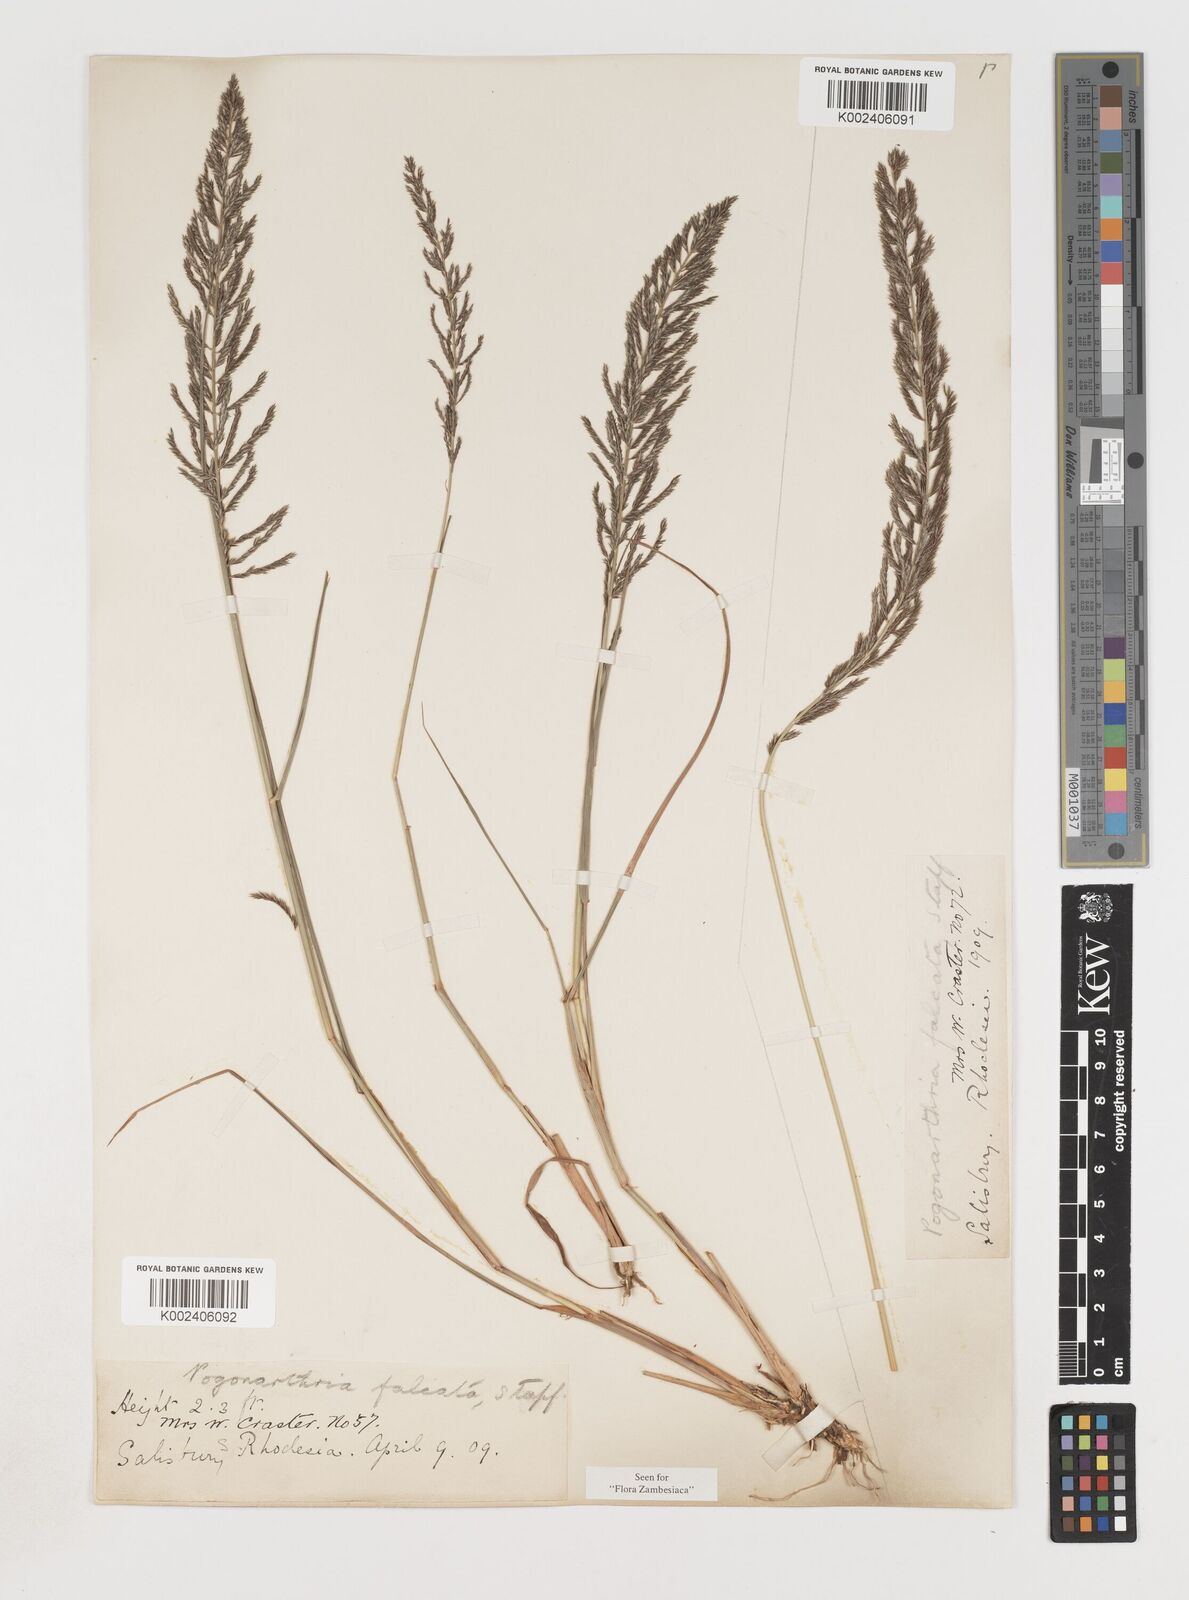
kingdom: Plantae
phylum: Tracheophyta
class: Liliopsida
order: Poales
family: Poaceae
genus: Pogonarthria
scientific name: Pogonarthria squarrosa
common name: Grass
